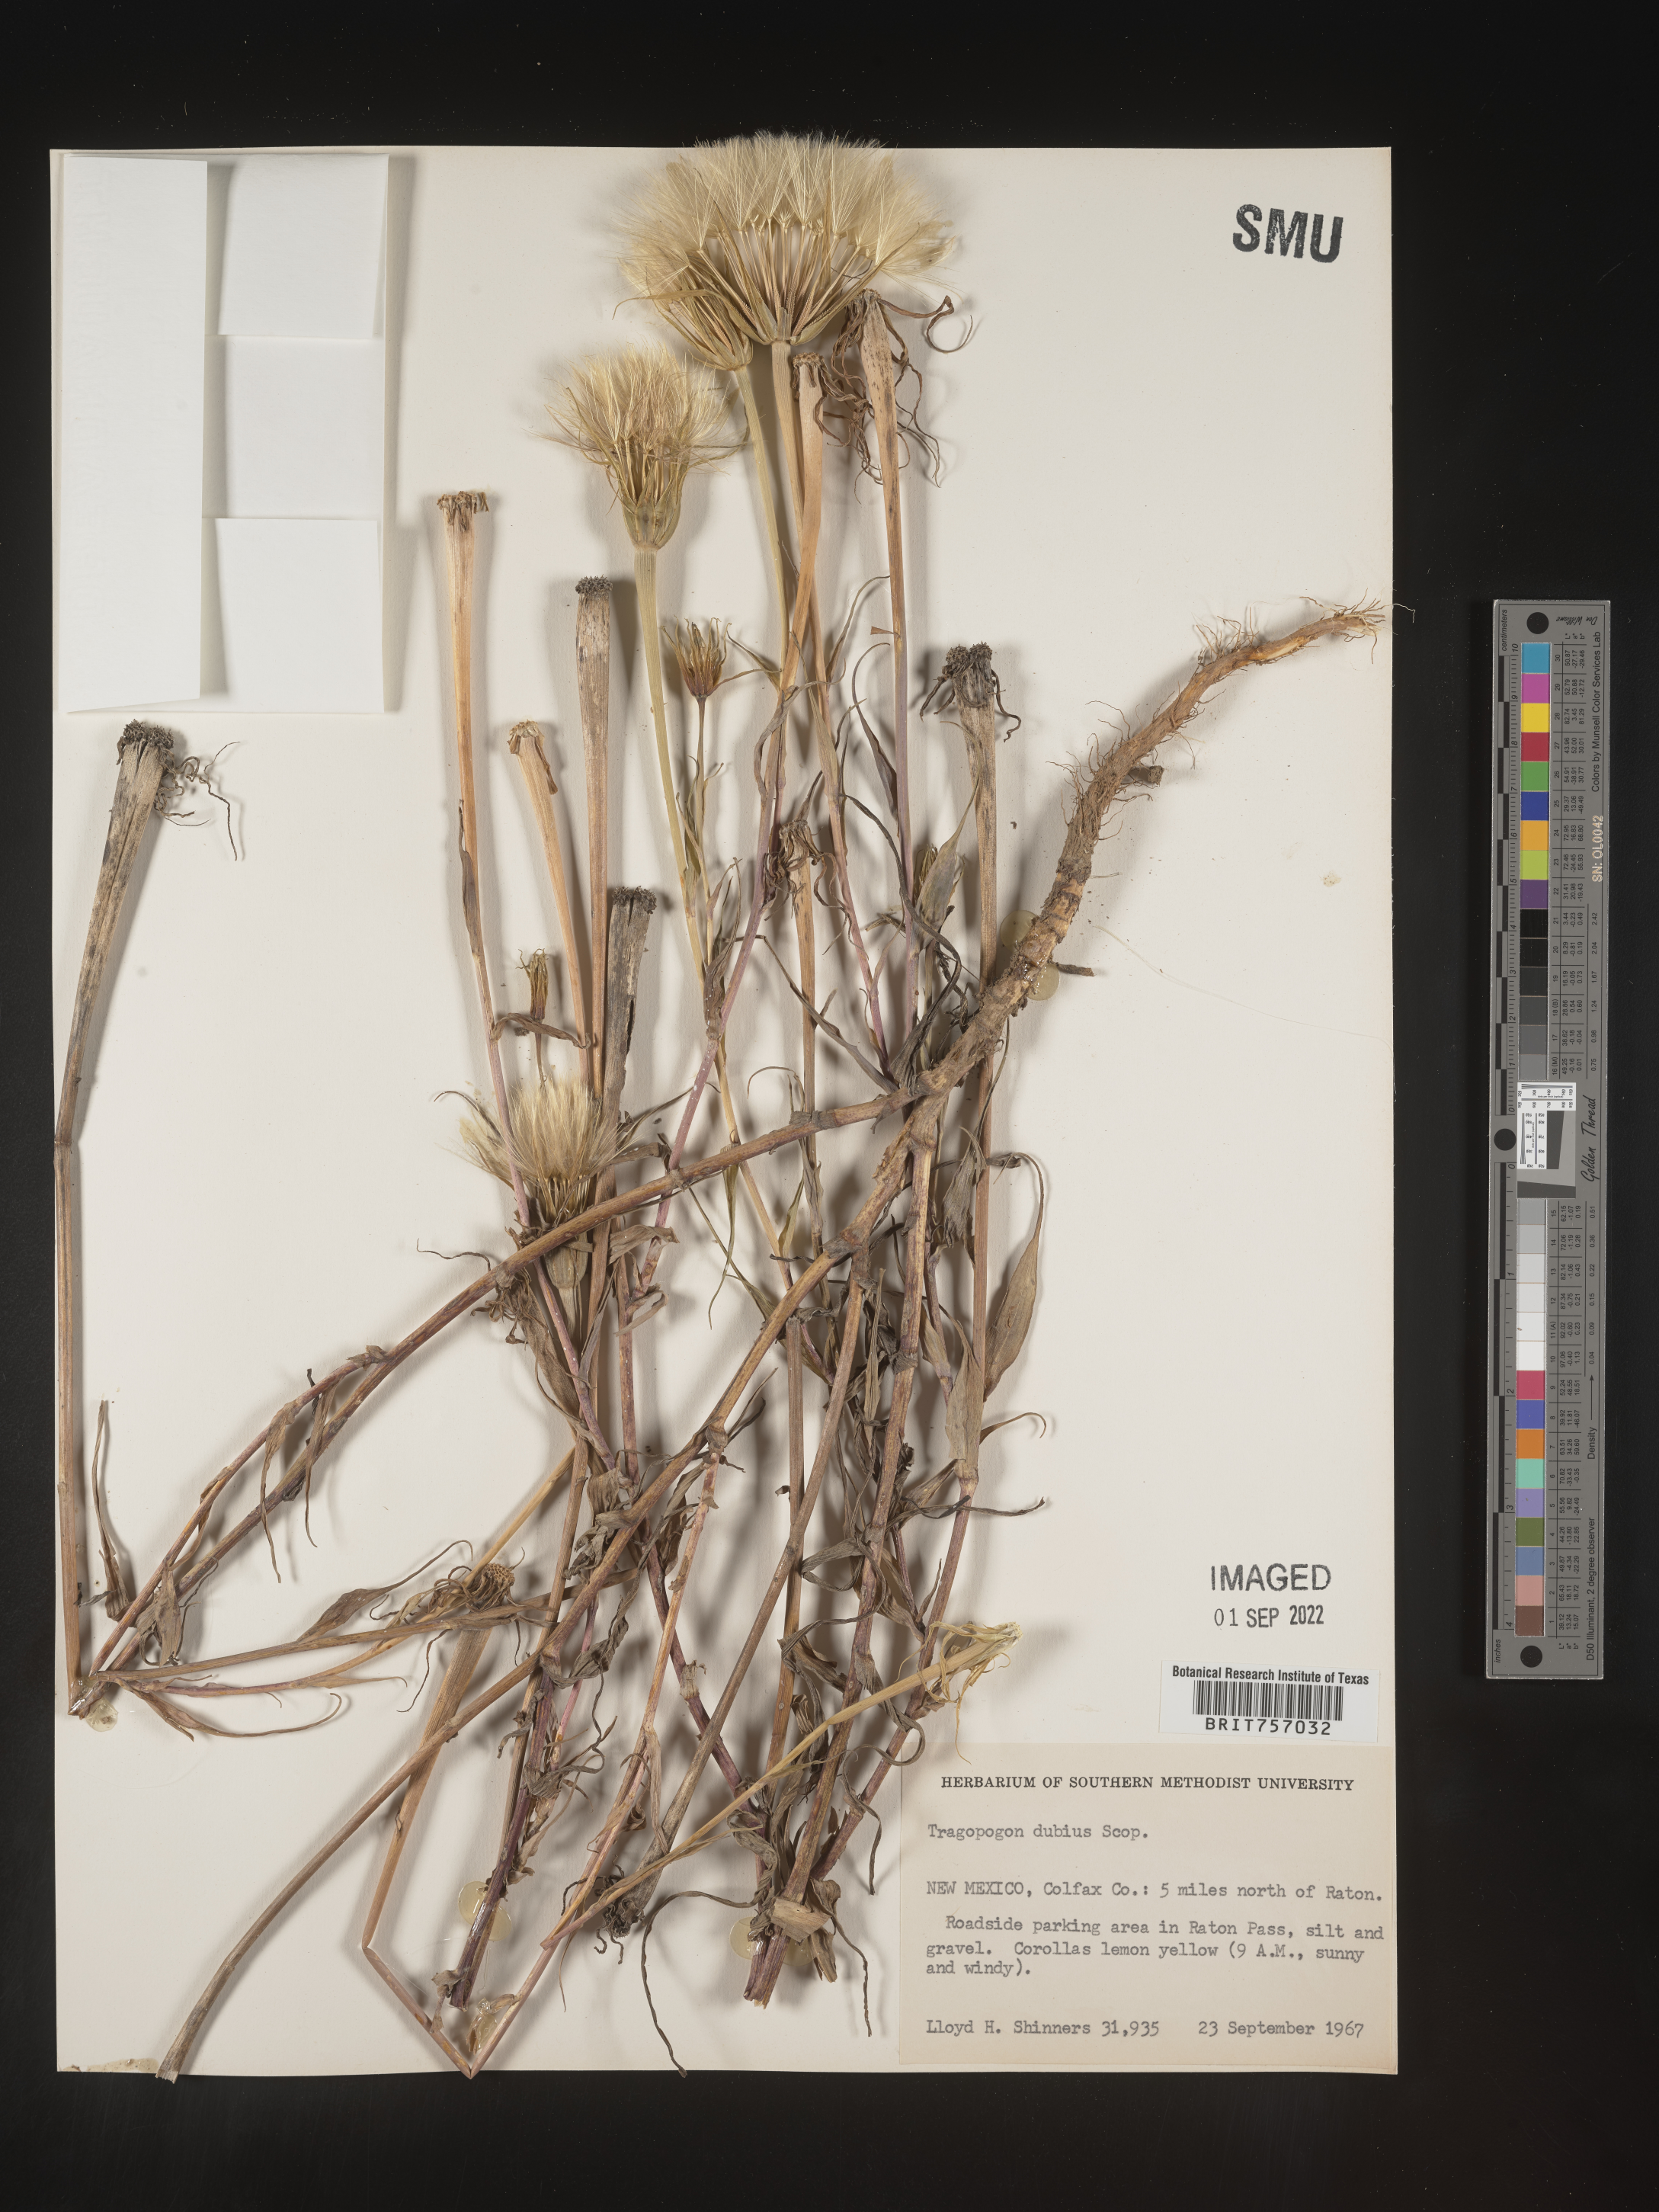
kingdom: Plantae
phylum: Tracheophyta
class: Magnoliopsida
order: Asterales
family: Asteraceae
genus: Tragopogon
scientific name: Tragopogon dubius
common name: Yellow salsify
